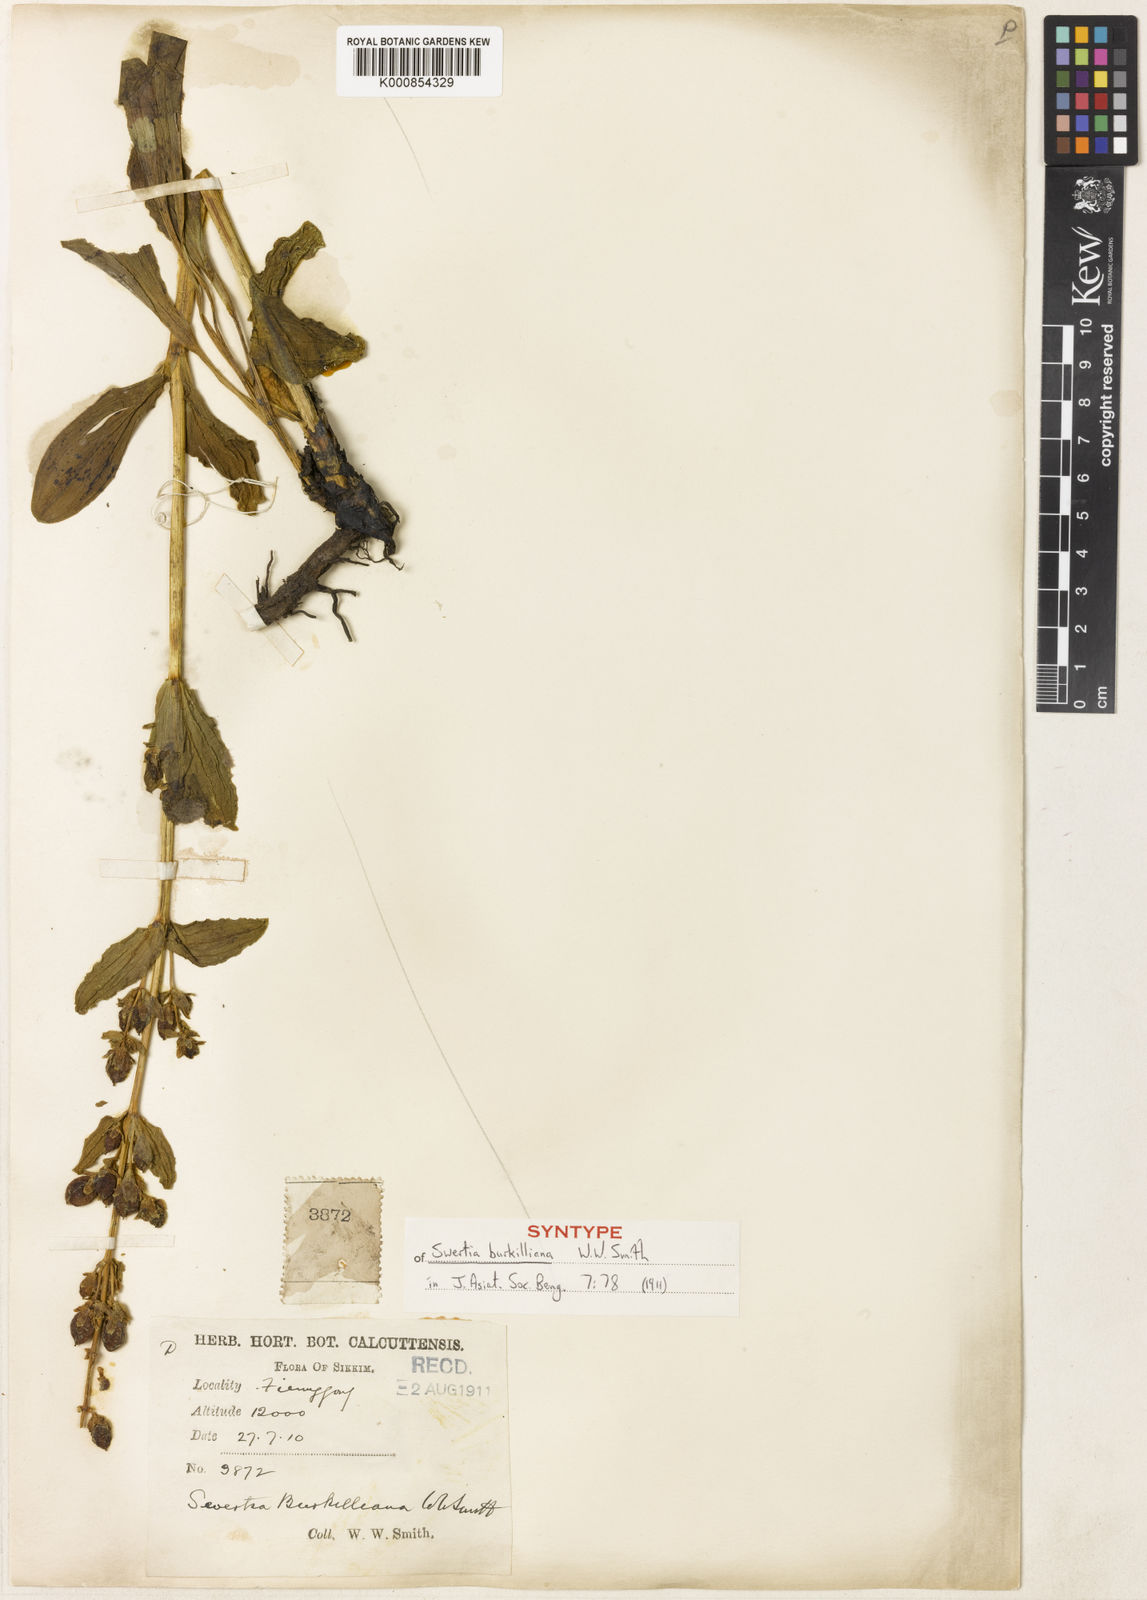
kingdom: Plantae
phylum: Tracheophyta
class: Magnoliopsida
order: Gentianales
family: Gentianaceae
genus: Veratrilla
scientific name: Veratrilla burkilliana
